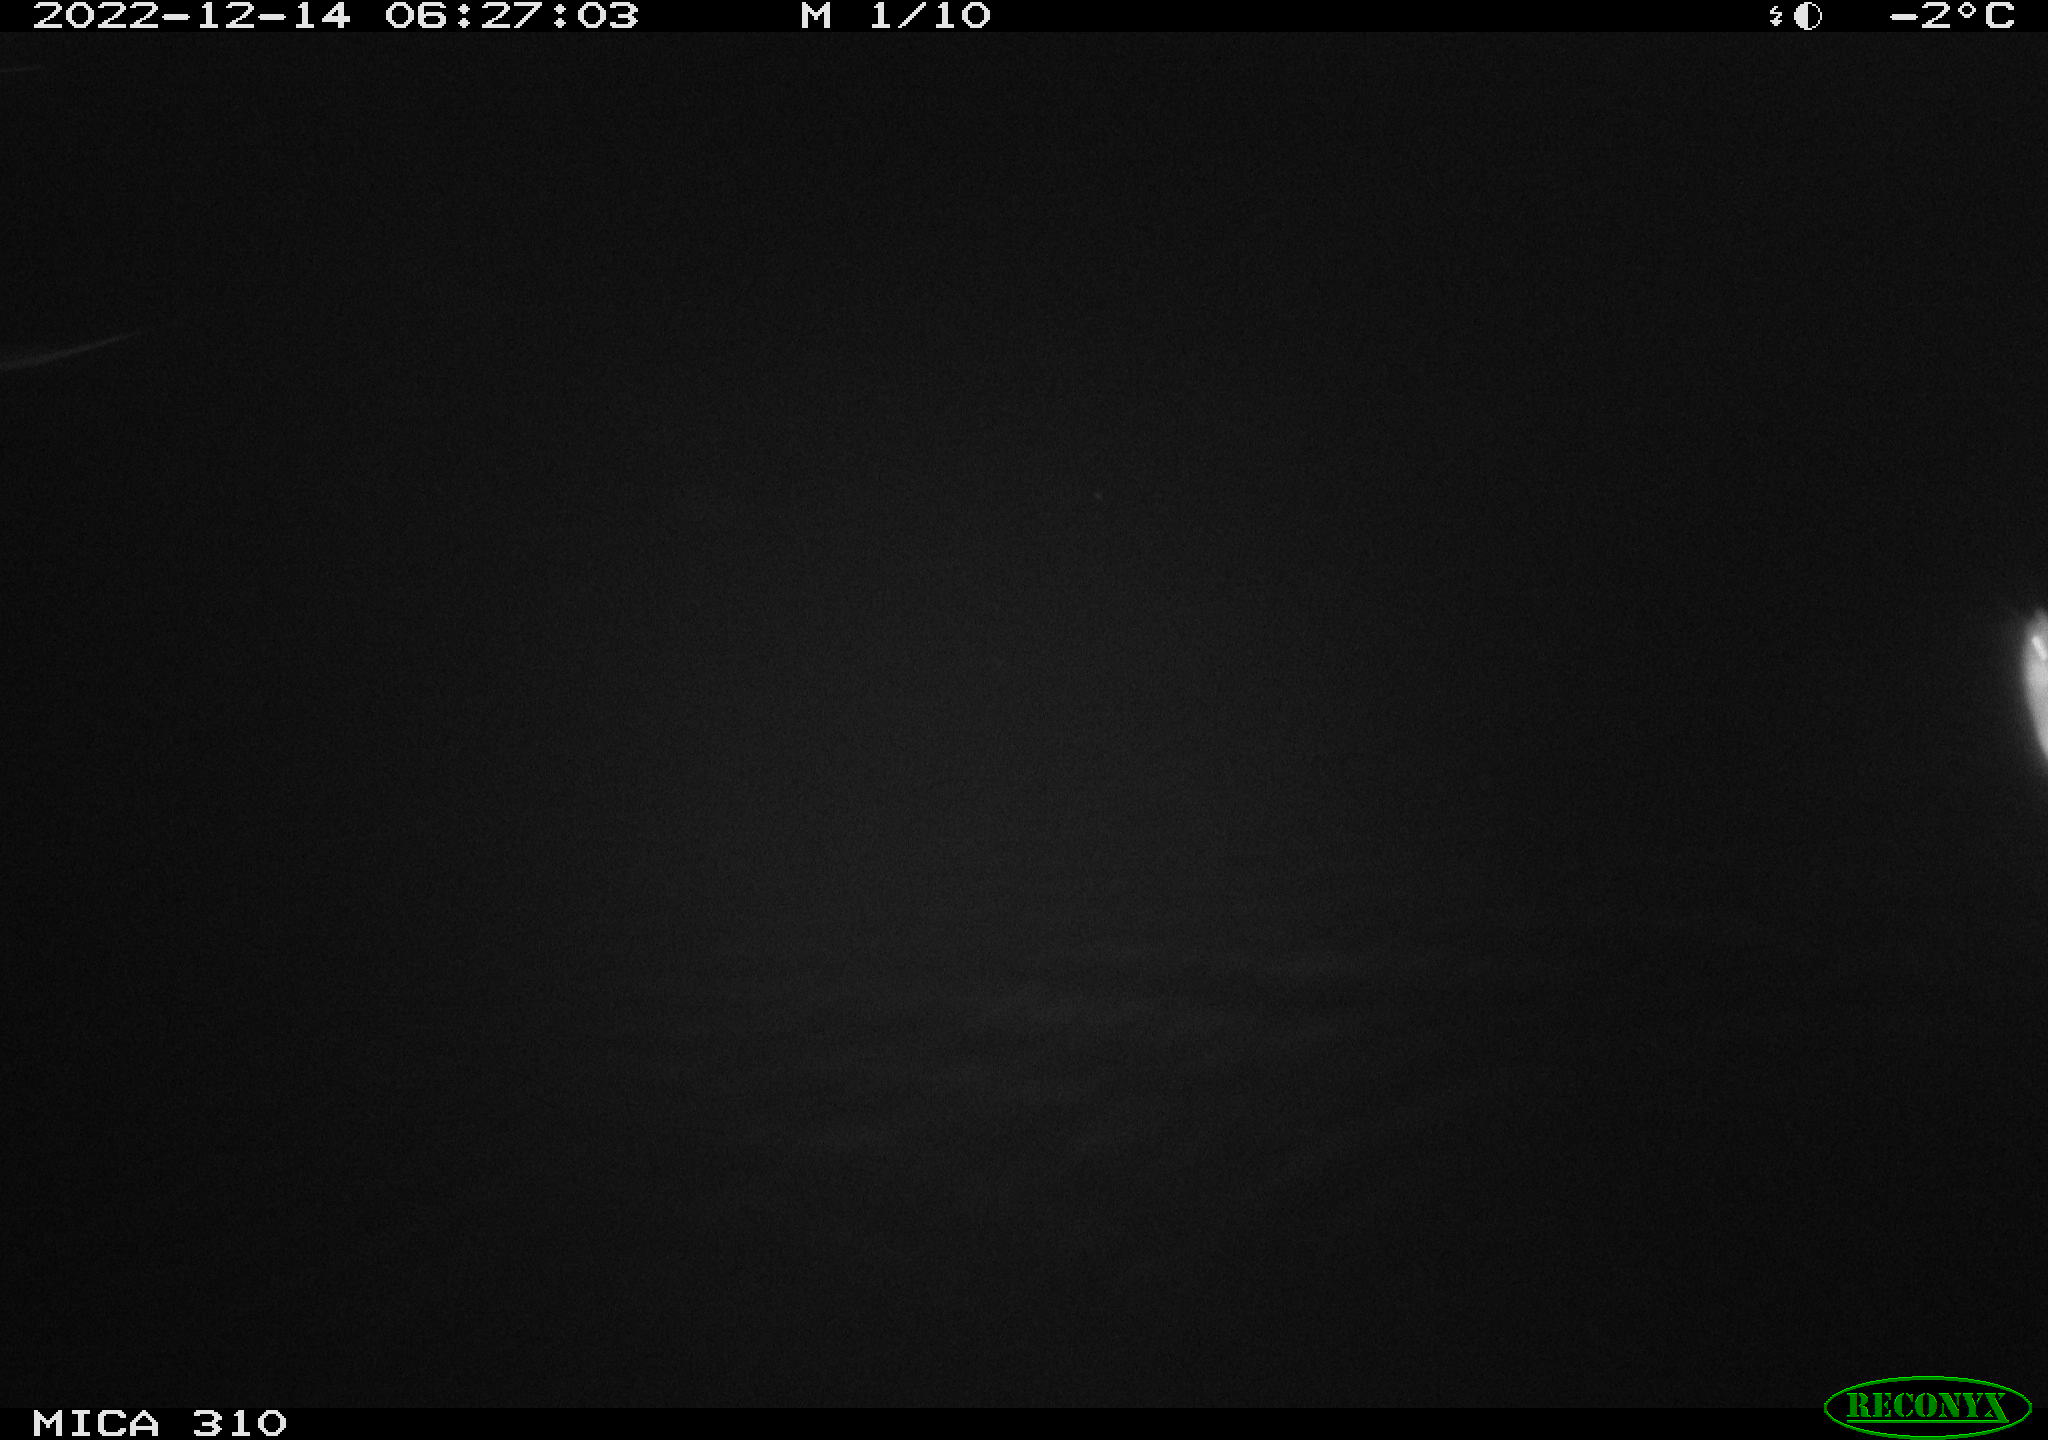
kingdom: Animalia
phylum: Chordata
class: Mammalia
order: Rodentia
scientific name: Rodentia
